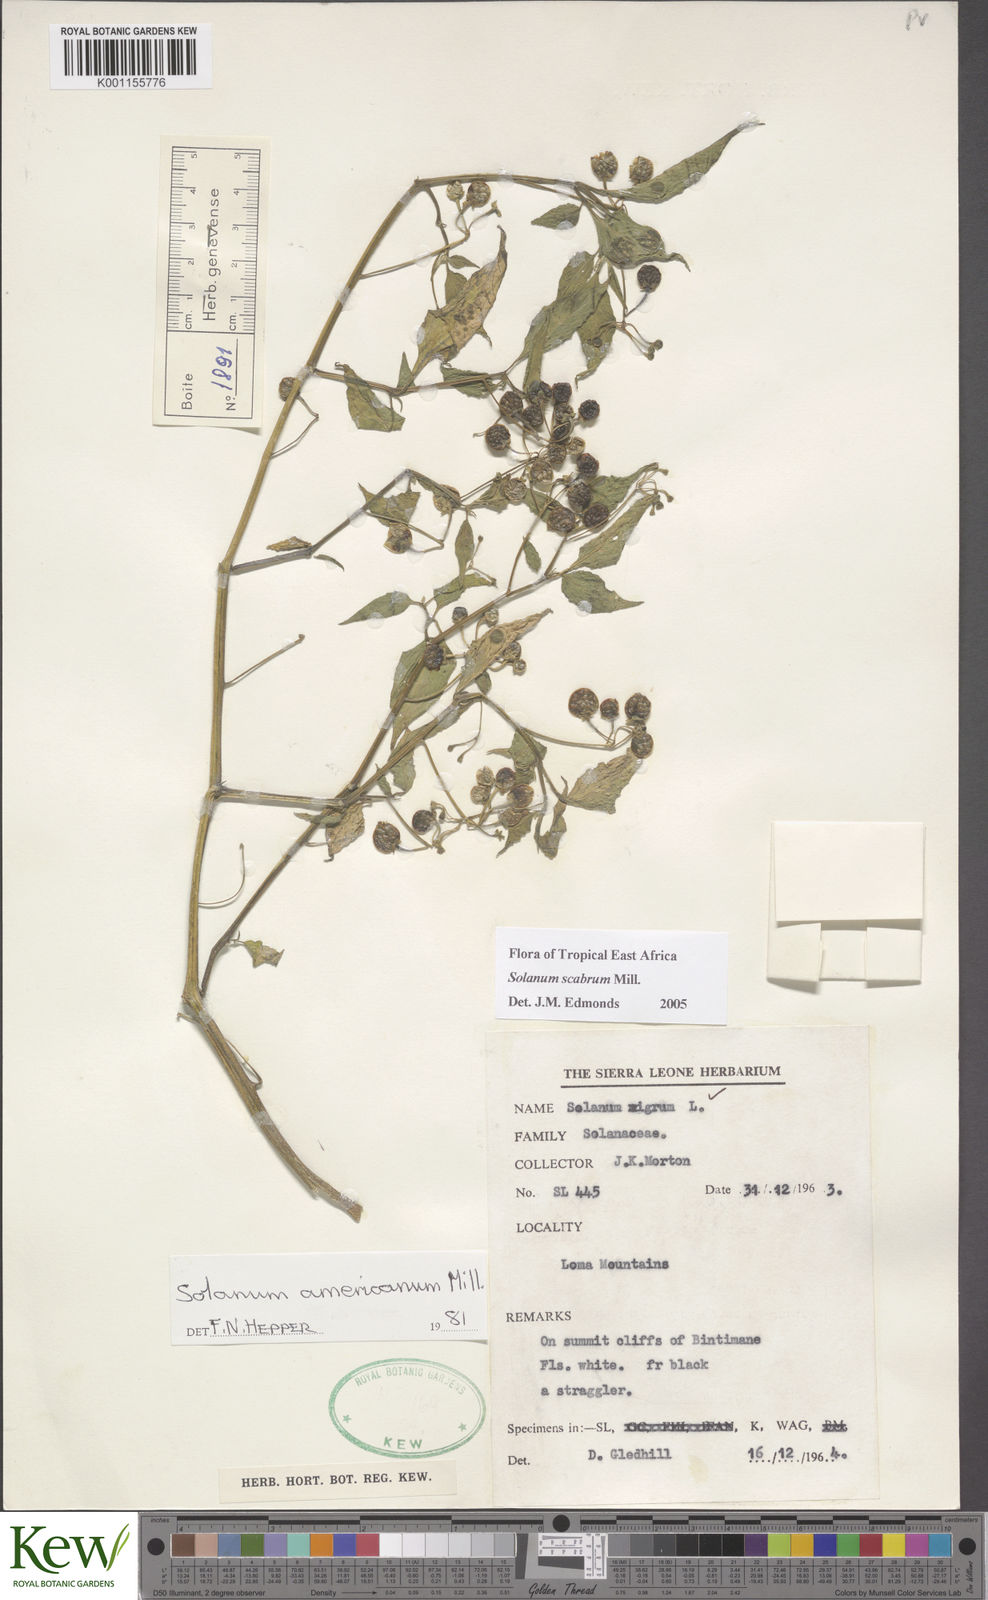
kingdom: Plantae
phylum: Tracheophyta
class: Magnoliopsida
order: Solanales
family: Solanaceae
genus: Solanum
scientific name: Solanum tarderemotum
